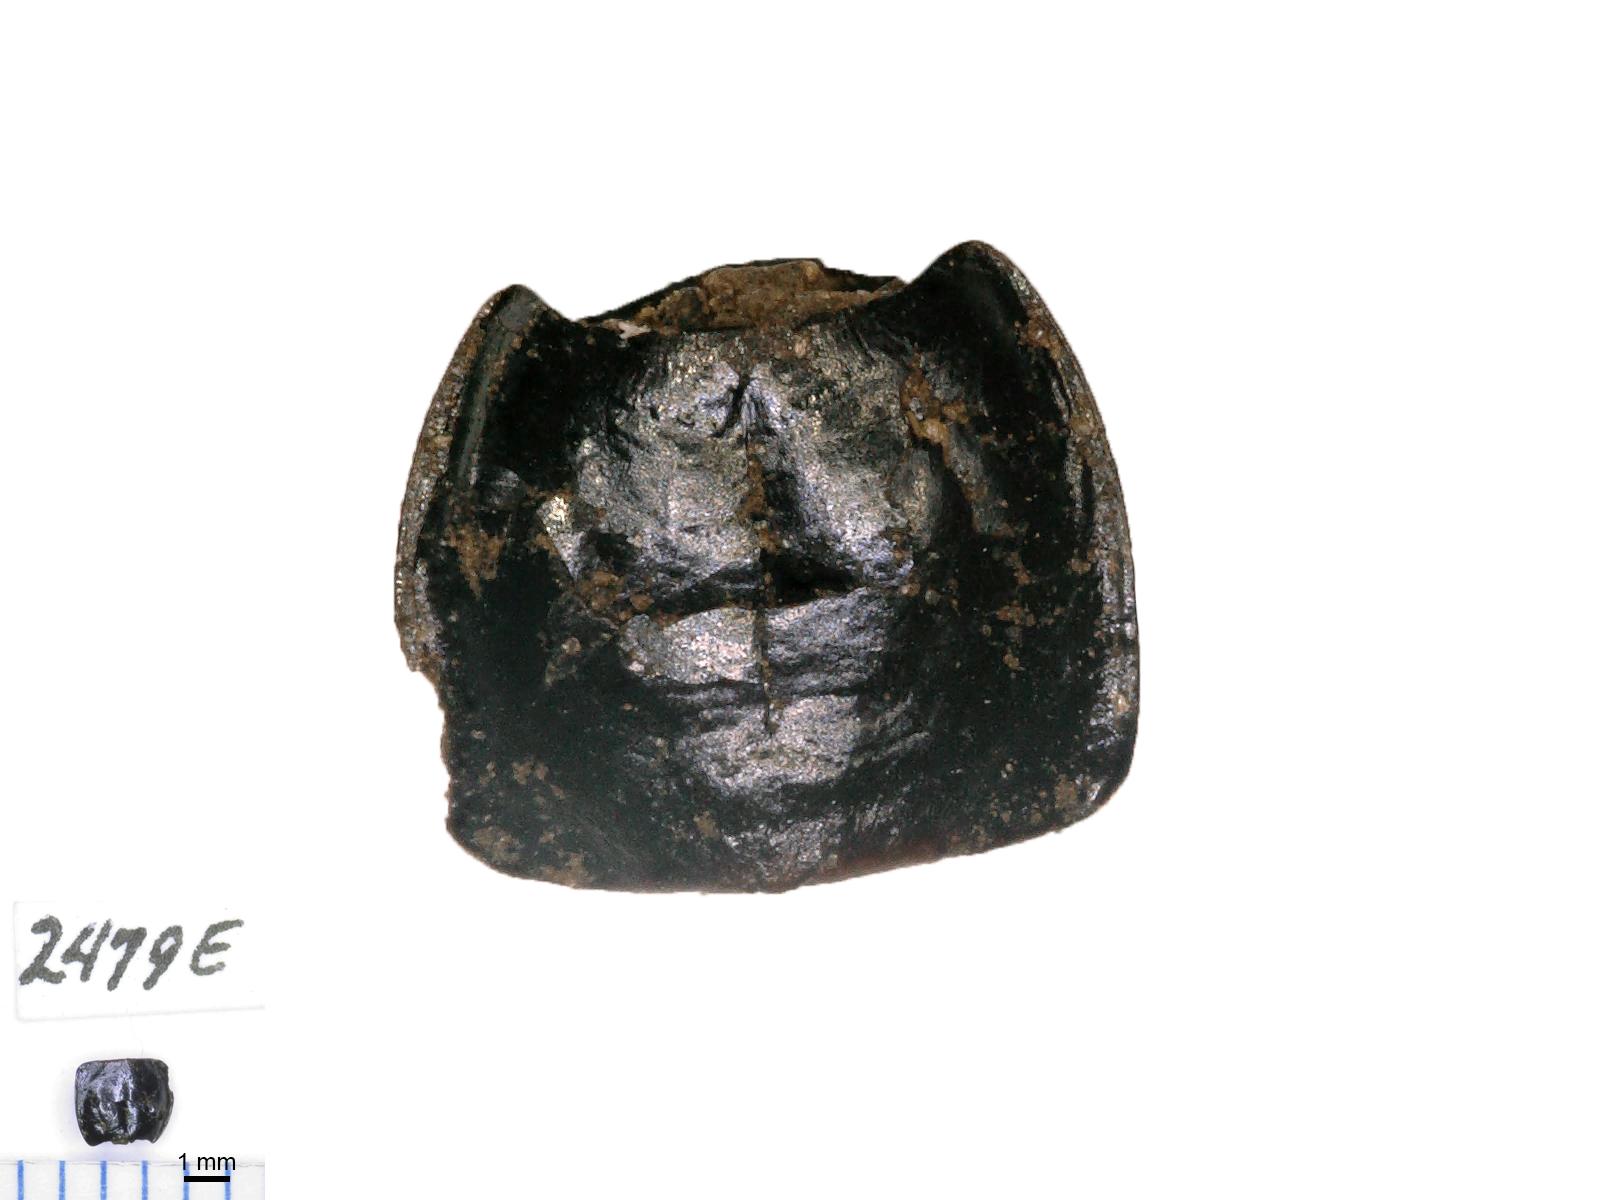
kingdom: Animalia
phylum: Arthropoda
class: Insecta
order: Coleoptera
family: Carabidae
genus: Calathus
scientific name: Calathus ruficollis
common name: Red-collared harp ground beetle
